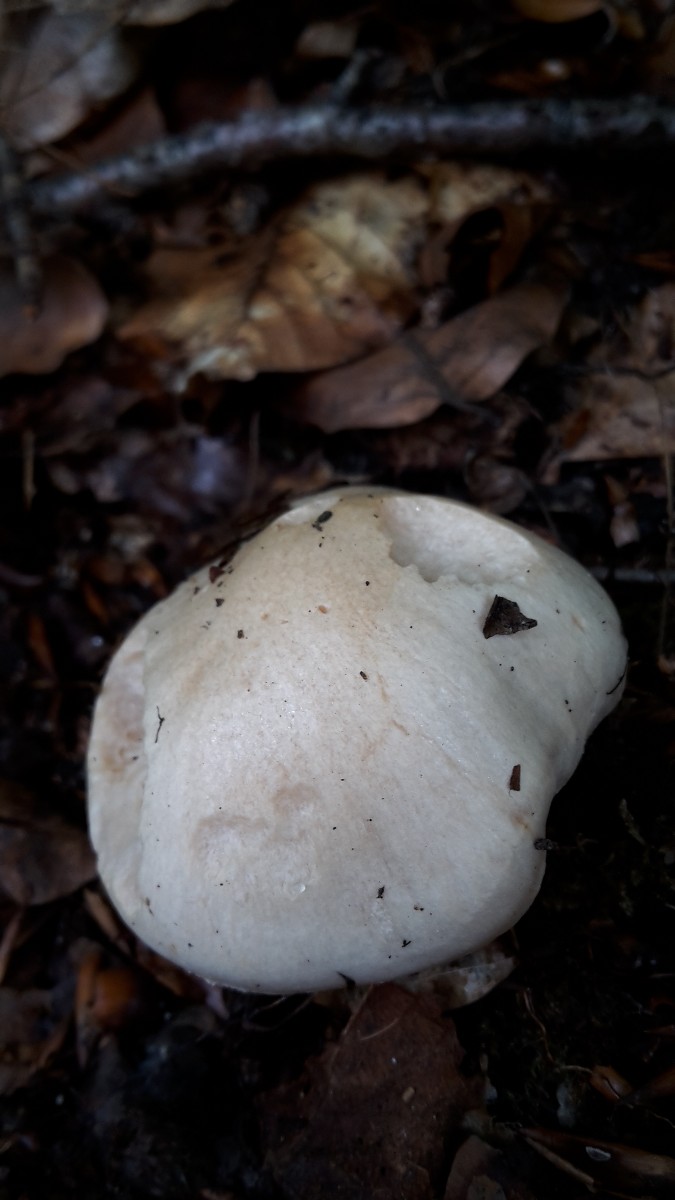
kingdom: Fungi
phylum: Basidiomycota
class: Agaricomycetes
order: Agaricales
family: Hygrophoraceae
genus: Hygrophorus
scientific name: Hygrophorus penarius
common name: spiselig sneglehat
